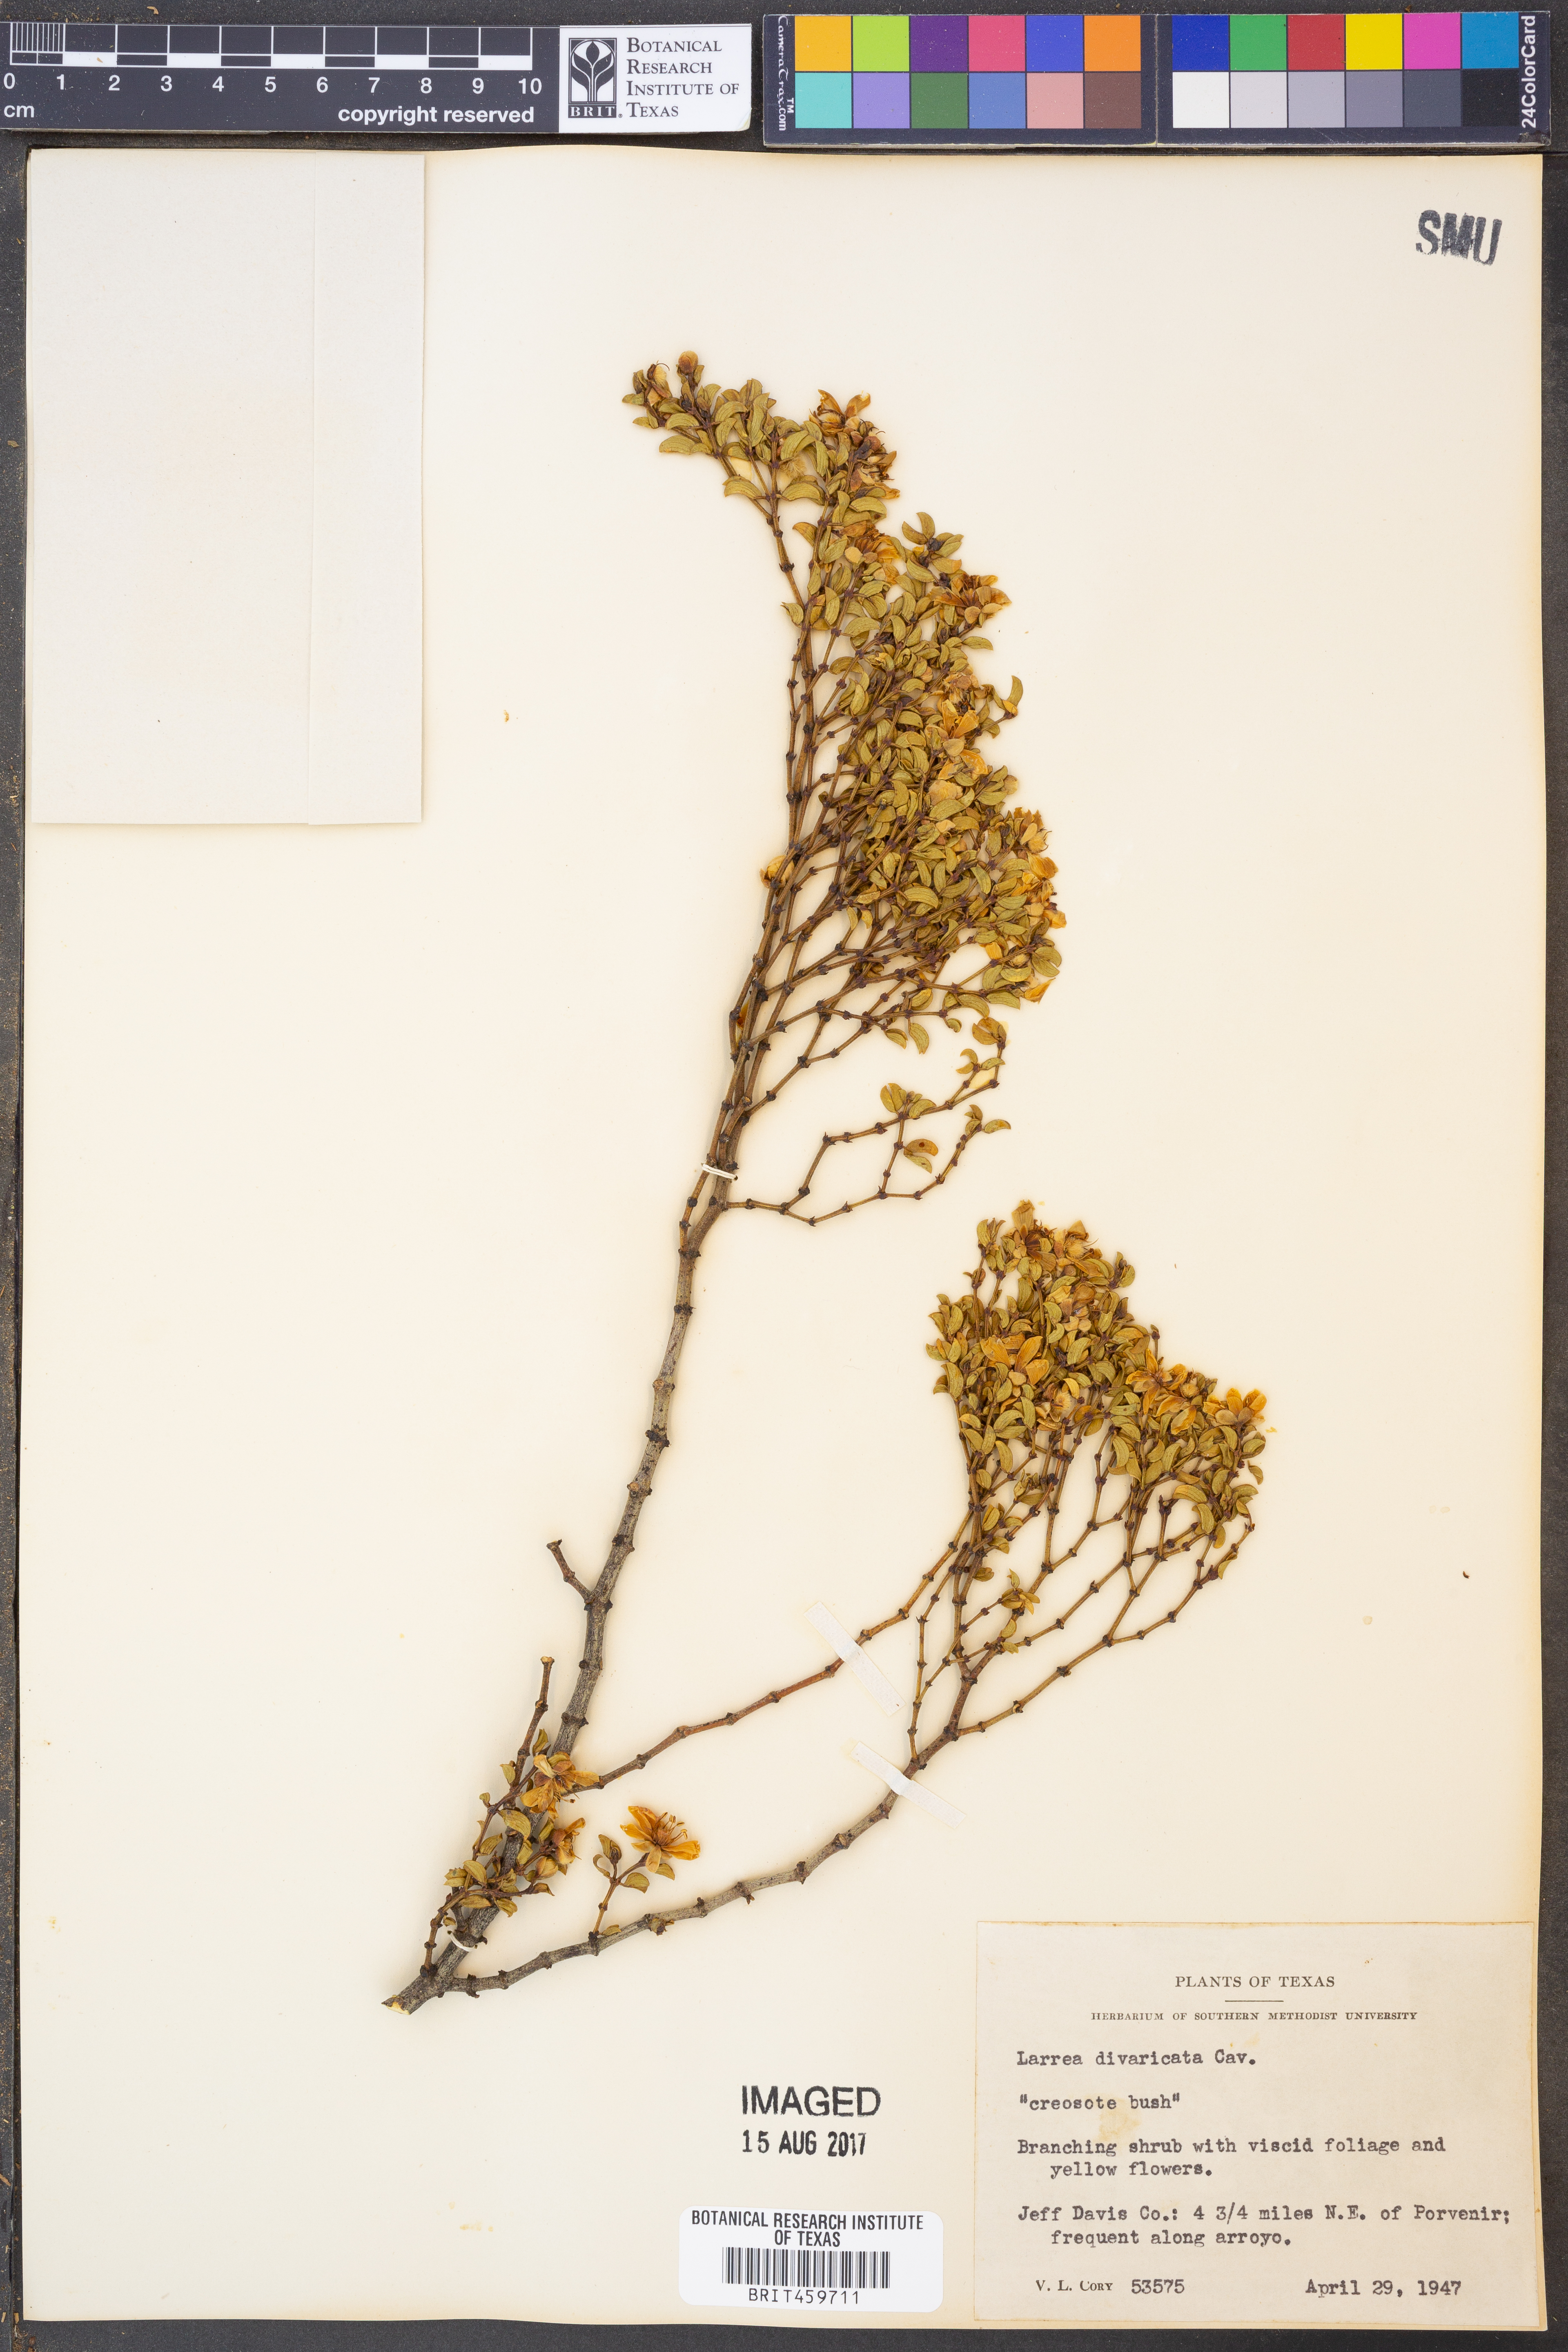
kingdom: Plantae
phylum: Tracheophyta
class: Magnoliopsida
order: Zygophyllales
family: Zygophyllaceae
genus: Larrea
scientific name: Larrea divaricata
